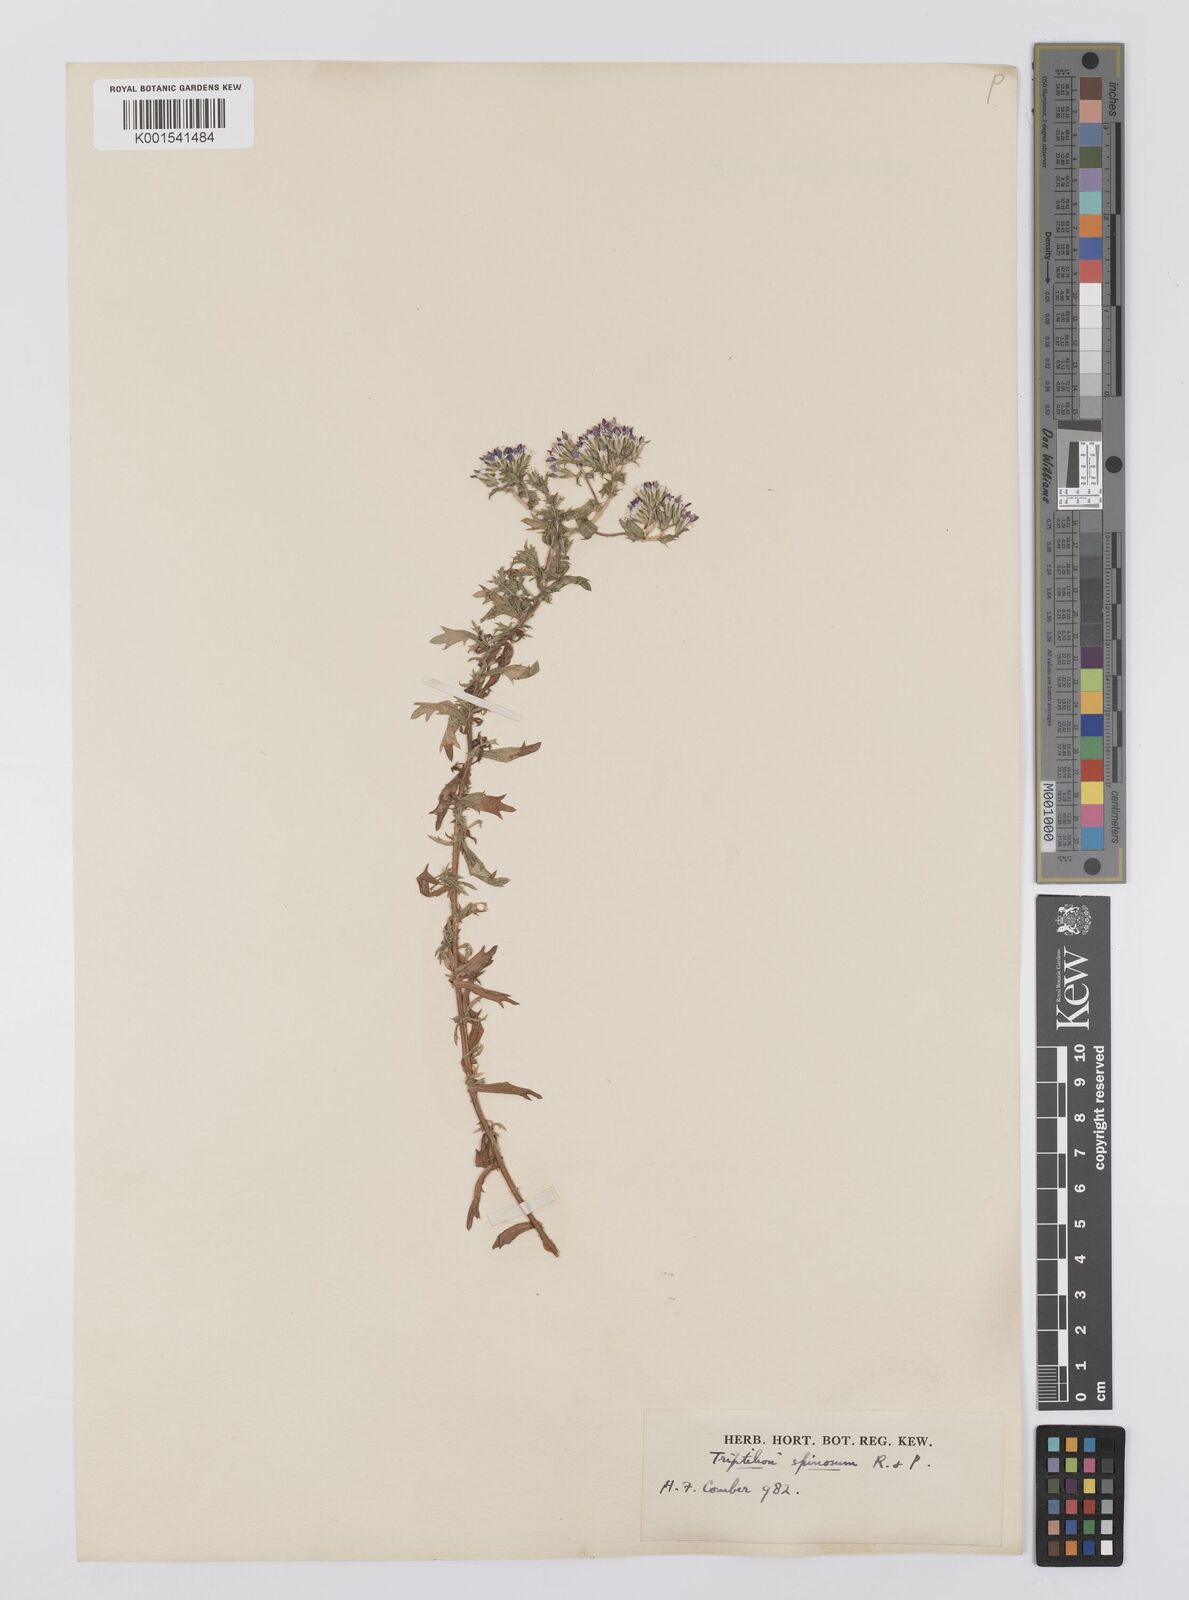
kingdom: Plantae
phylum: Tracheophyta
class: Magnoliopsida
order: Asterales
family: Asteraceae
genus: Triptilion
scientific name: Triptilion spinosum
